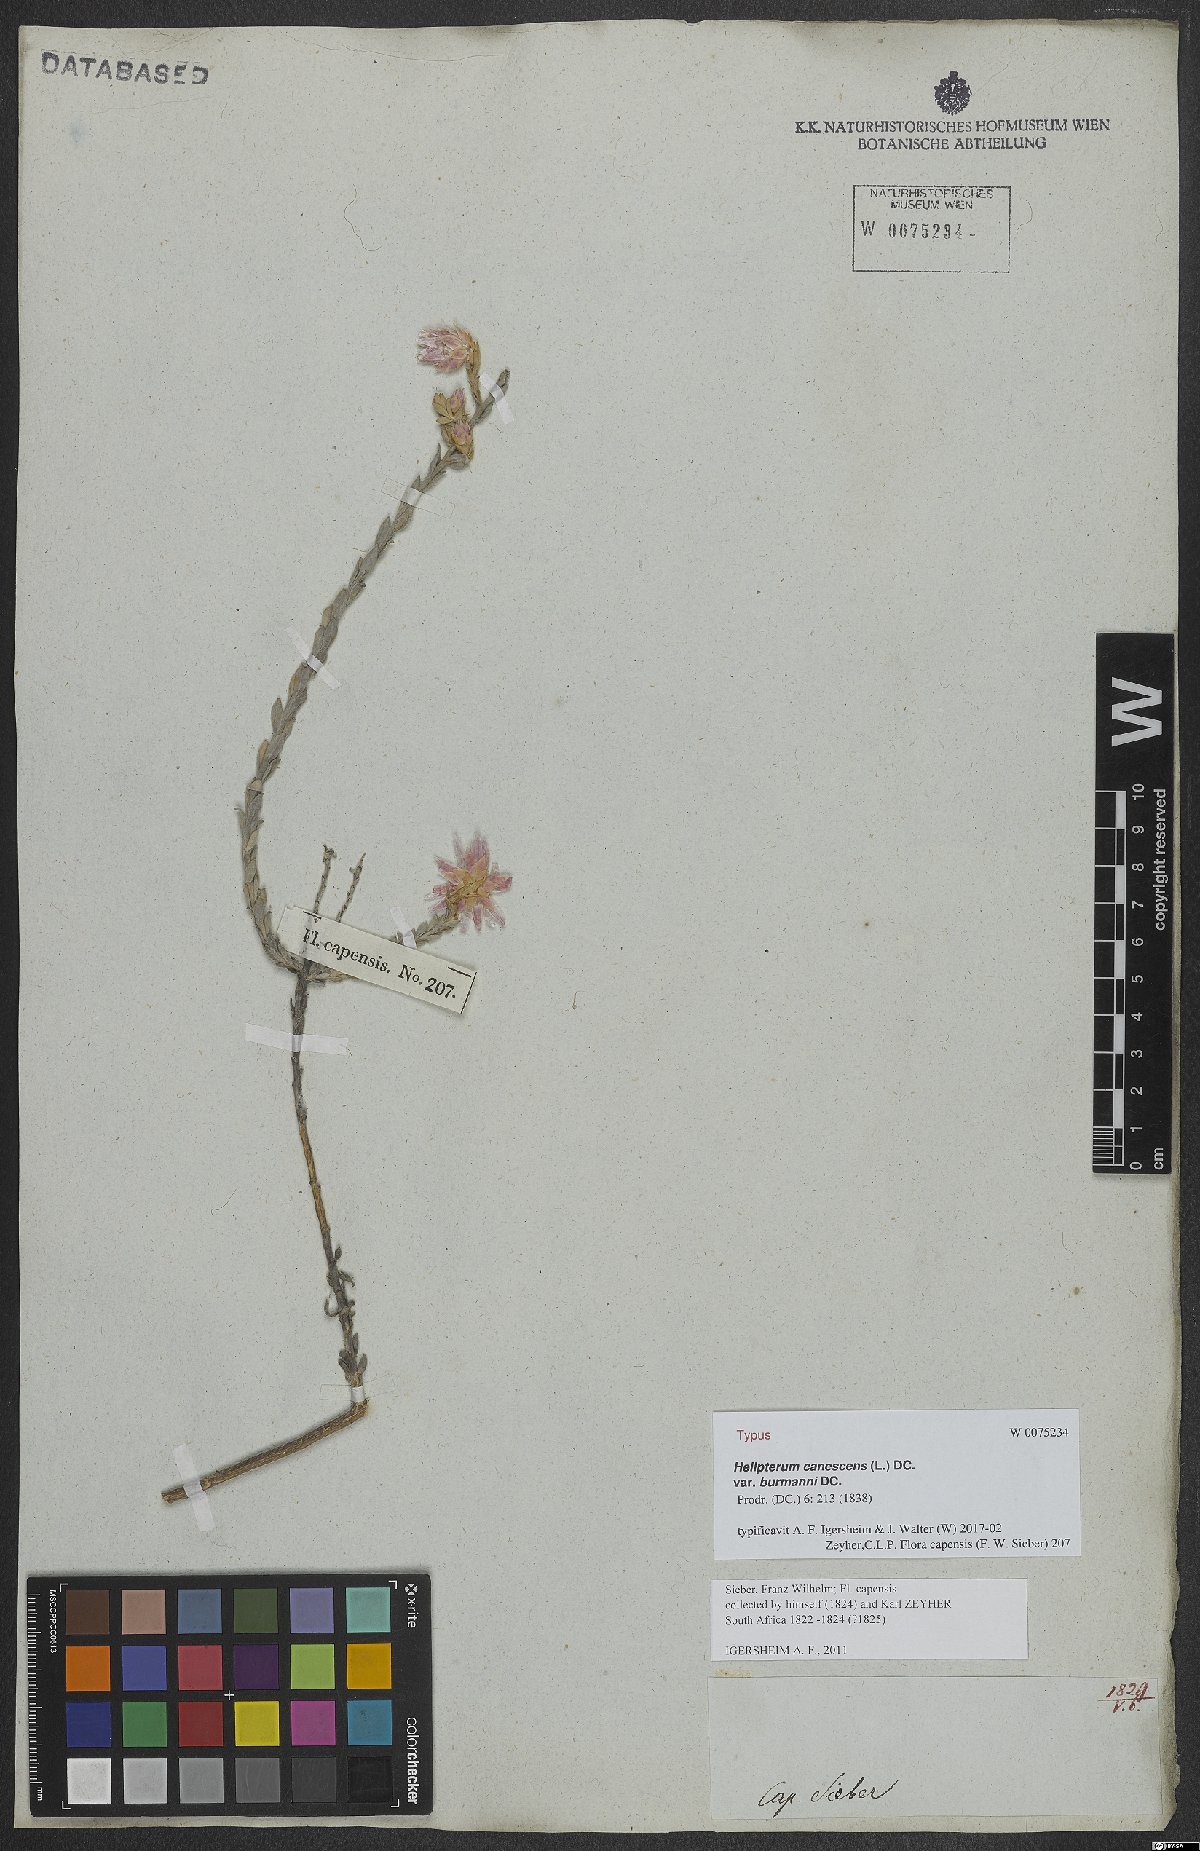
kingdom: Plantae
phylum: Tracheophyta
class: Magnoliopsida
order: Asterales
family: Asteraceae
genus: Syncarpha
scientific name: Syncarpha canescens
